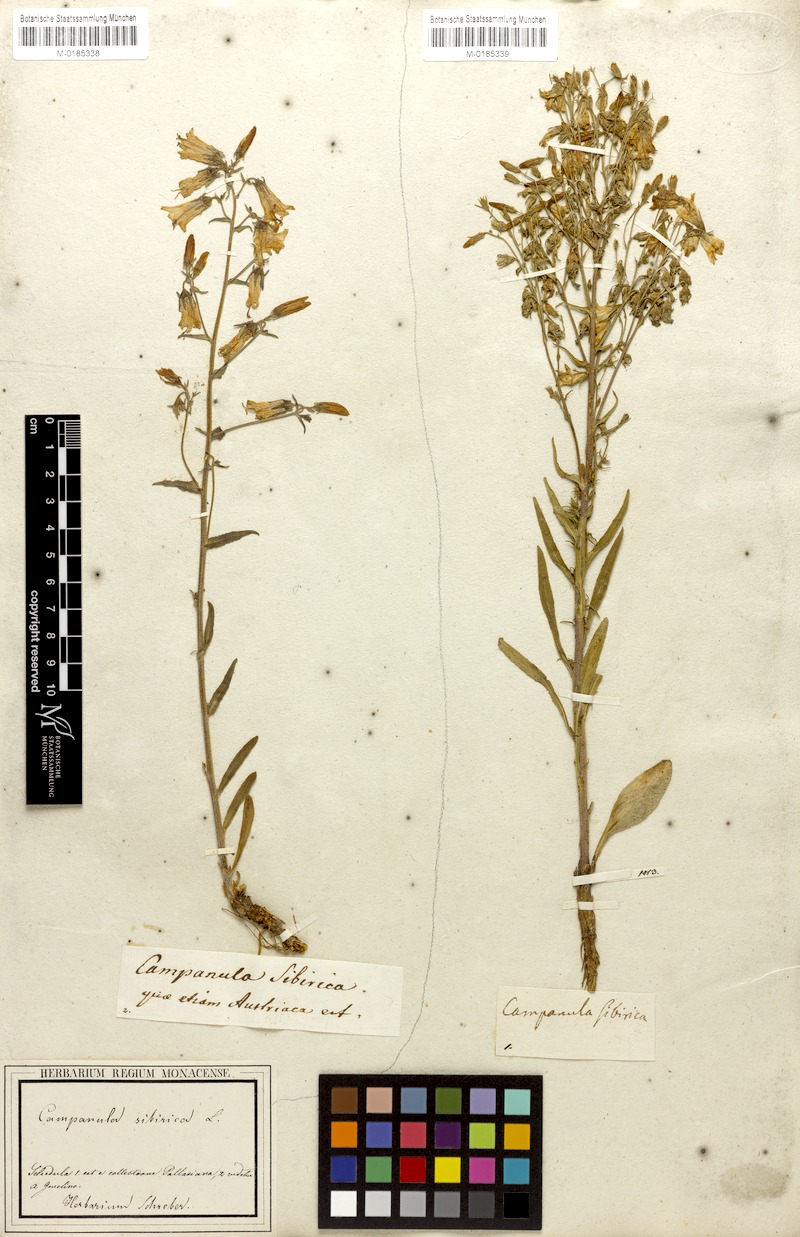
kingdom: Plantae
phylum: Tracheophyta
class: Magnoliopsida
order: Asterales
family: Campanulaceae
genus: Campanula
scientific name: Campanula sibirica
